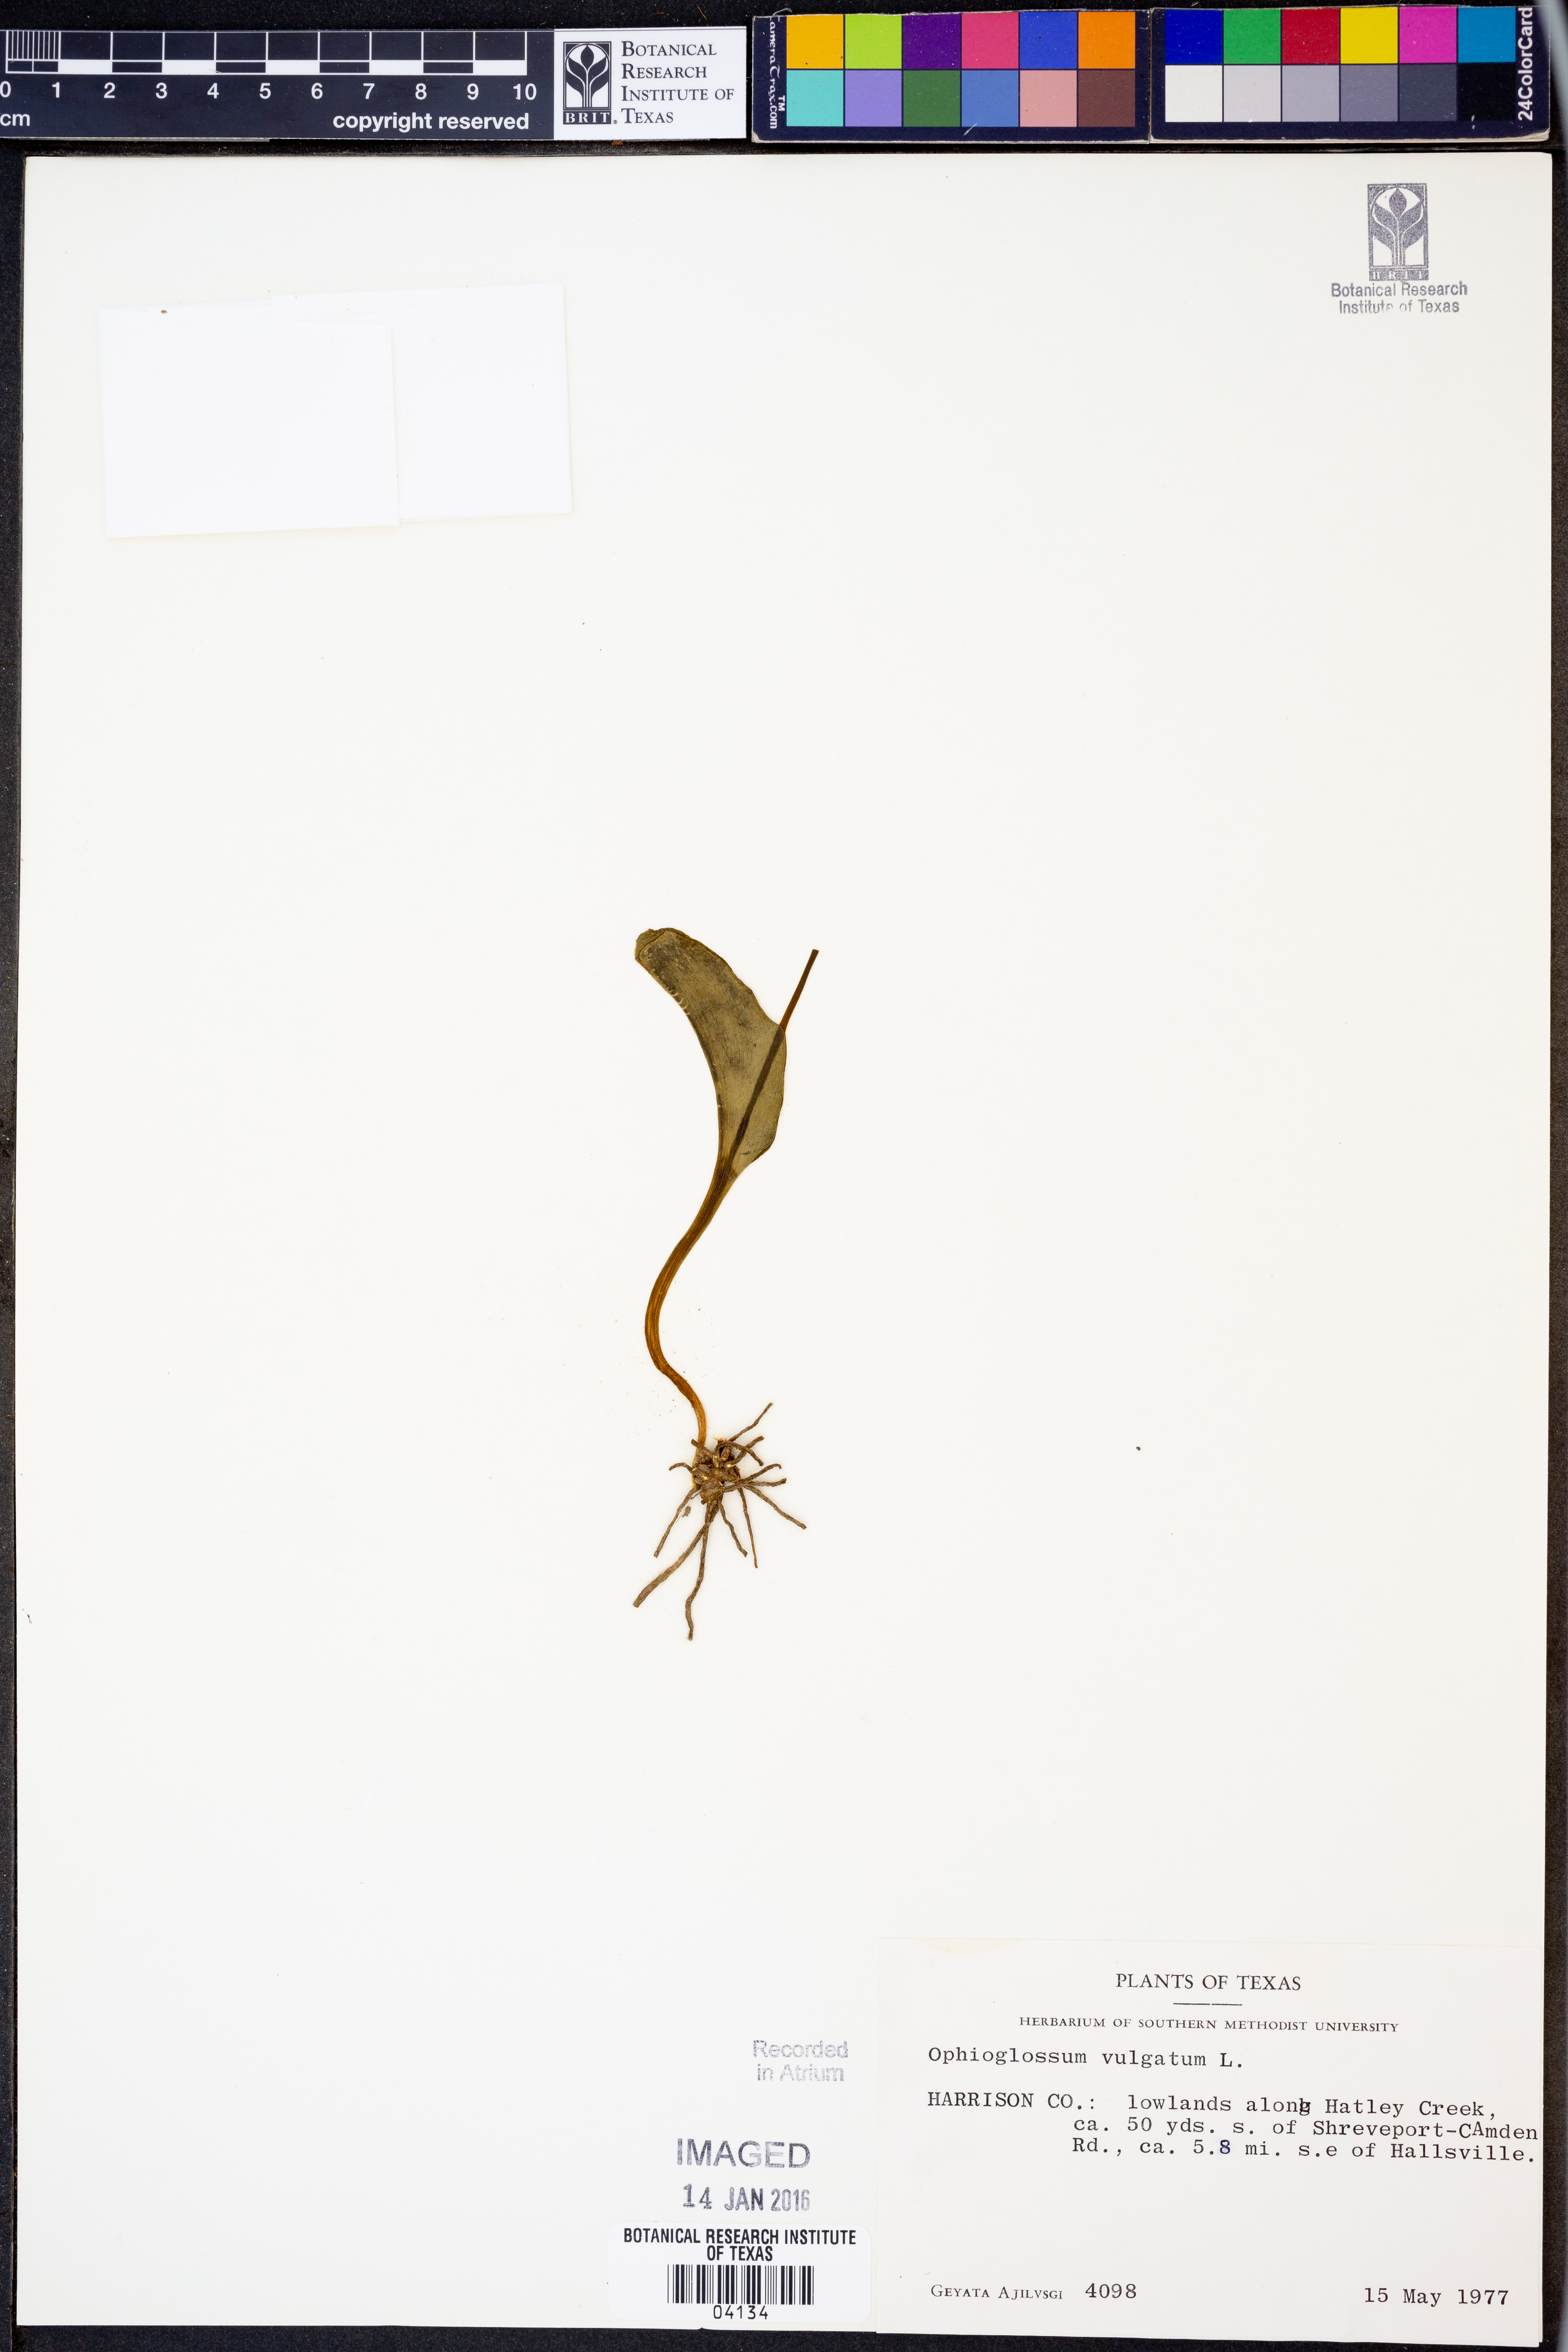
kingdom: Plantae
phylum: Tracheophyta
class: Polypodiopsida
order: Ophioglossales
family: Ophioglossaceae
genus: Ophioglossum
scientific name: Ophioglossum vulgatum
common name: Adder's-tongue
